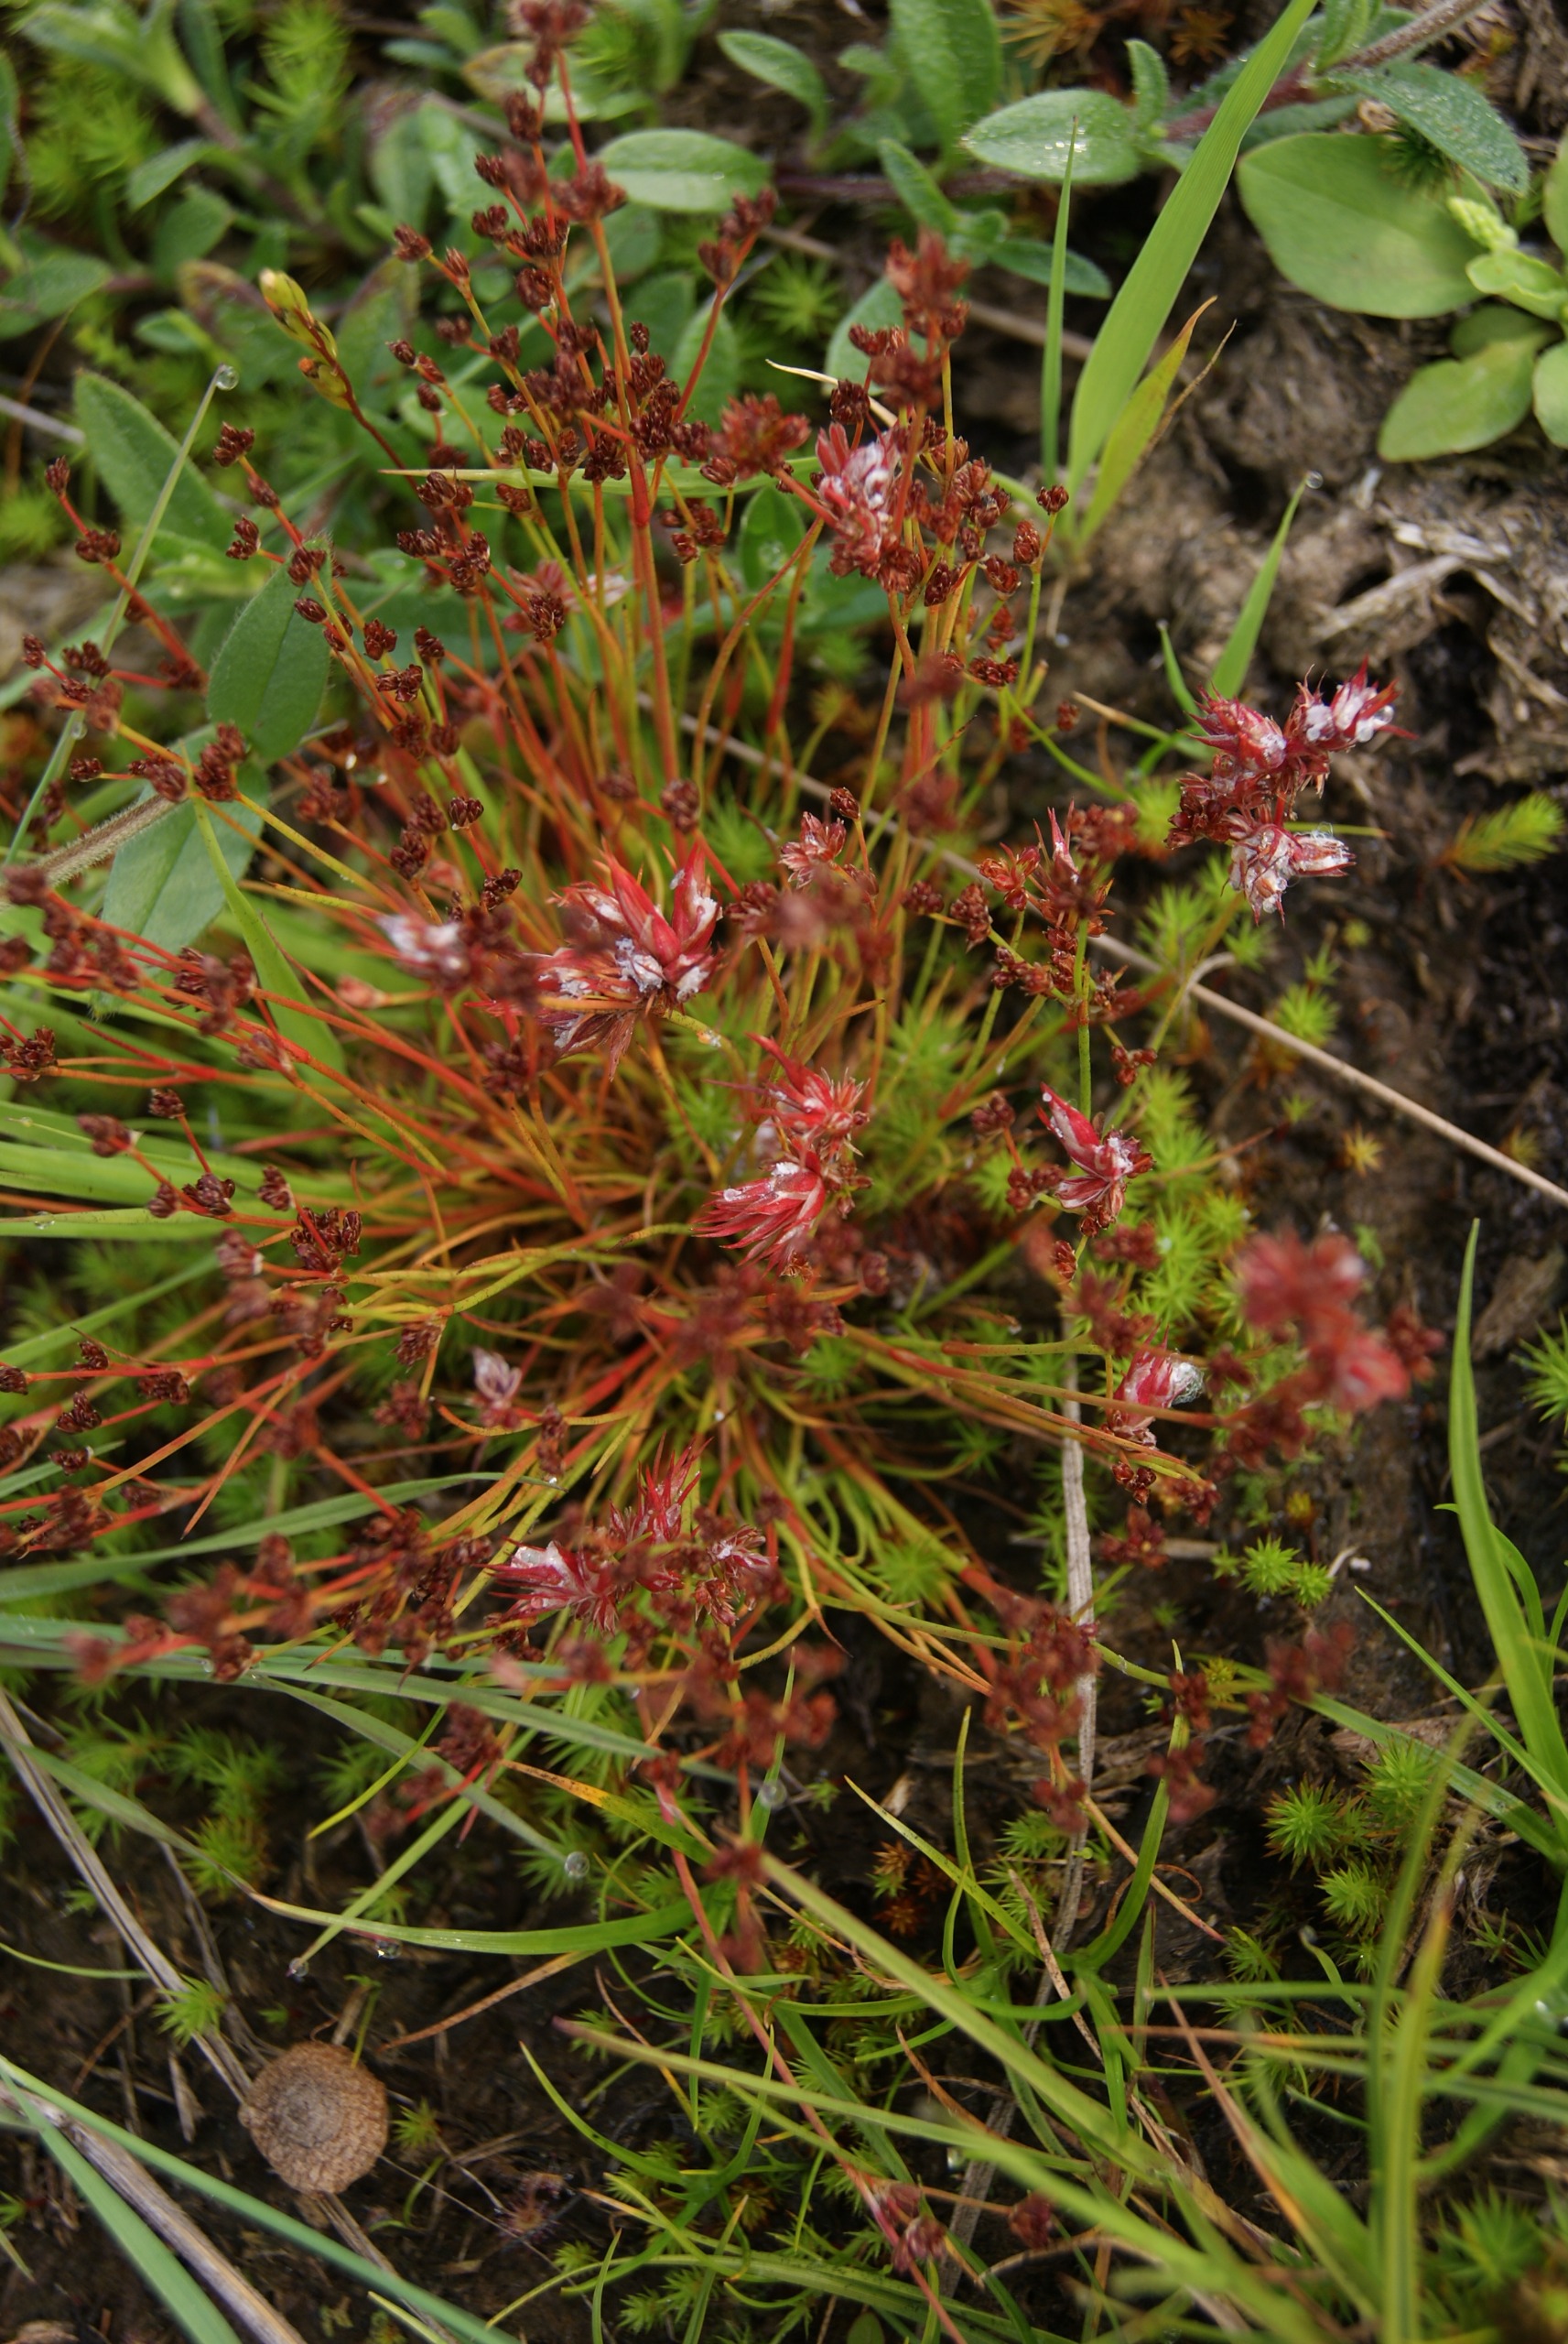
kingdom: Plantae
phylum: Tracheophyta
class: Liliopsida
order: Poales
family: Juncaceae
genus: Juncus
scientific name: Juncus bulbosus
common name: Liden siv
